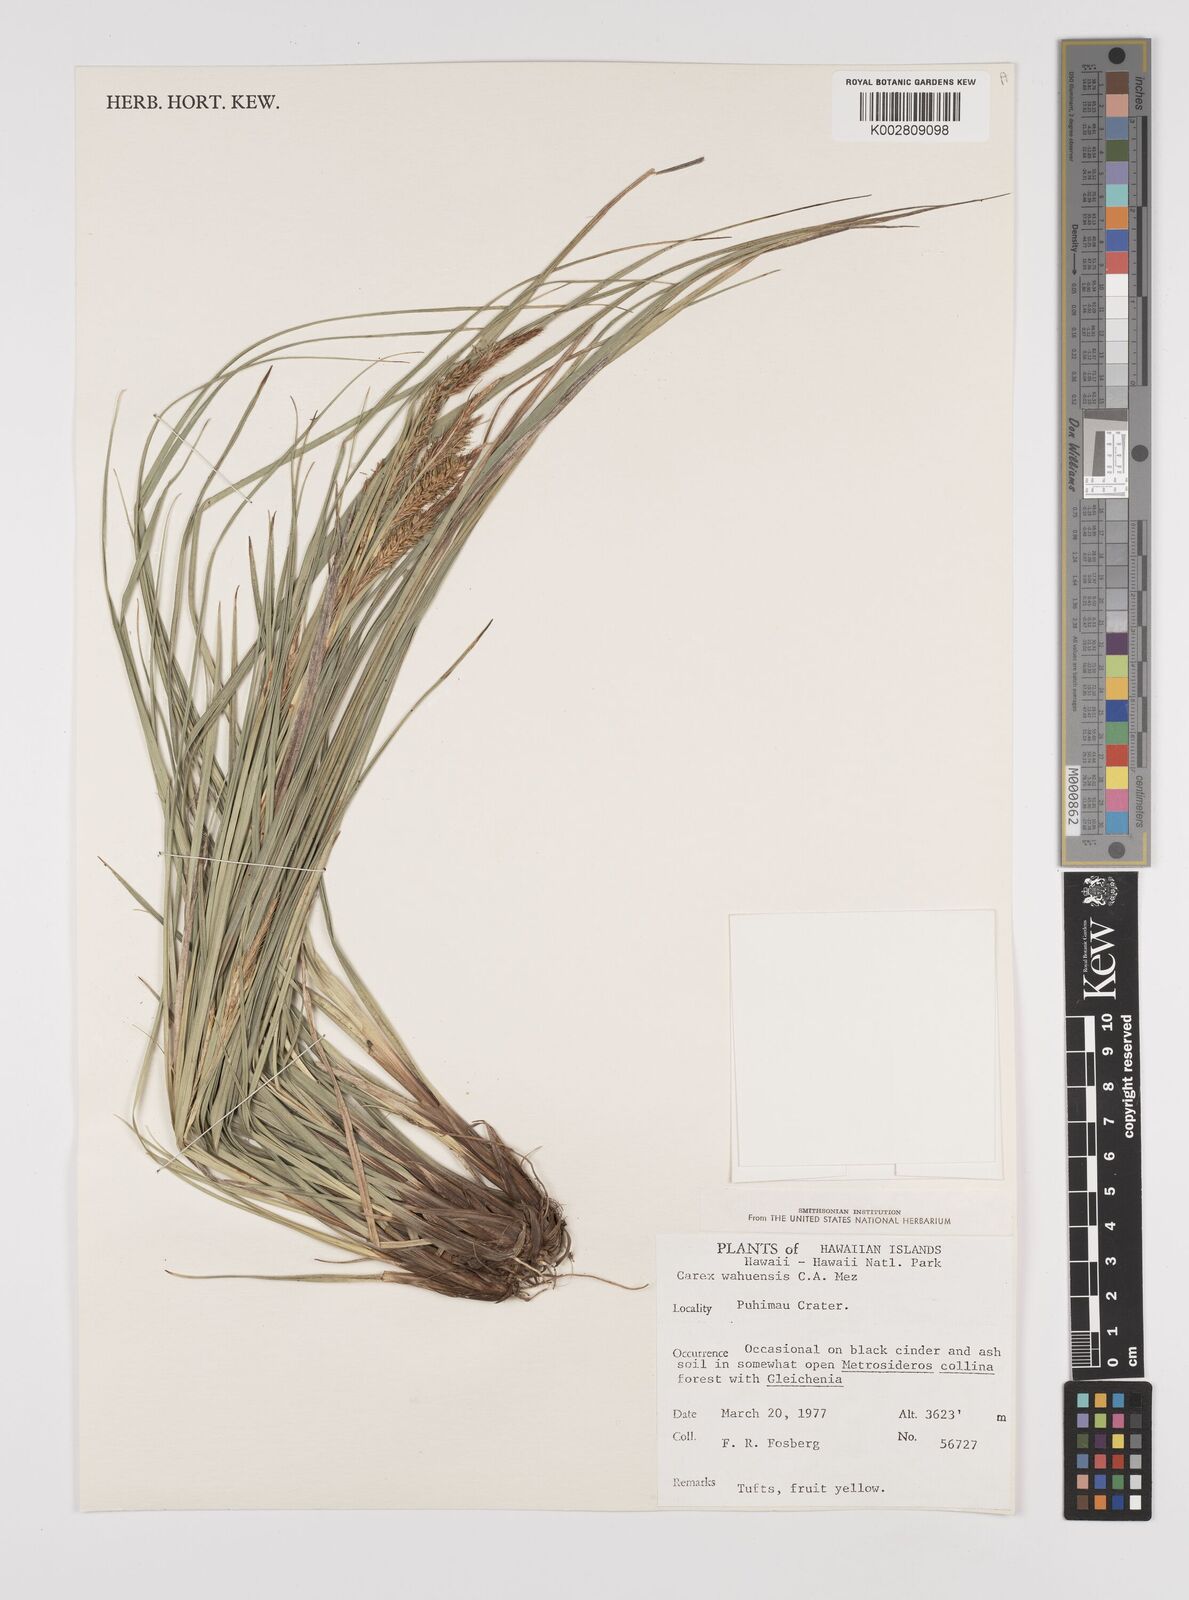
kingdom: Plantae
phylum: Tracheophyta
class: Liliopsida
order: Poales
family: Cyperaceae
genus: Carex
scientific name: Carex wahuensis
